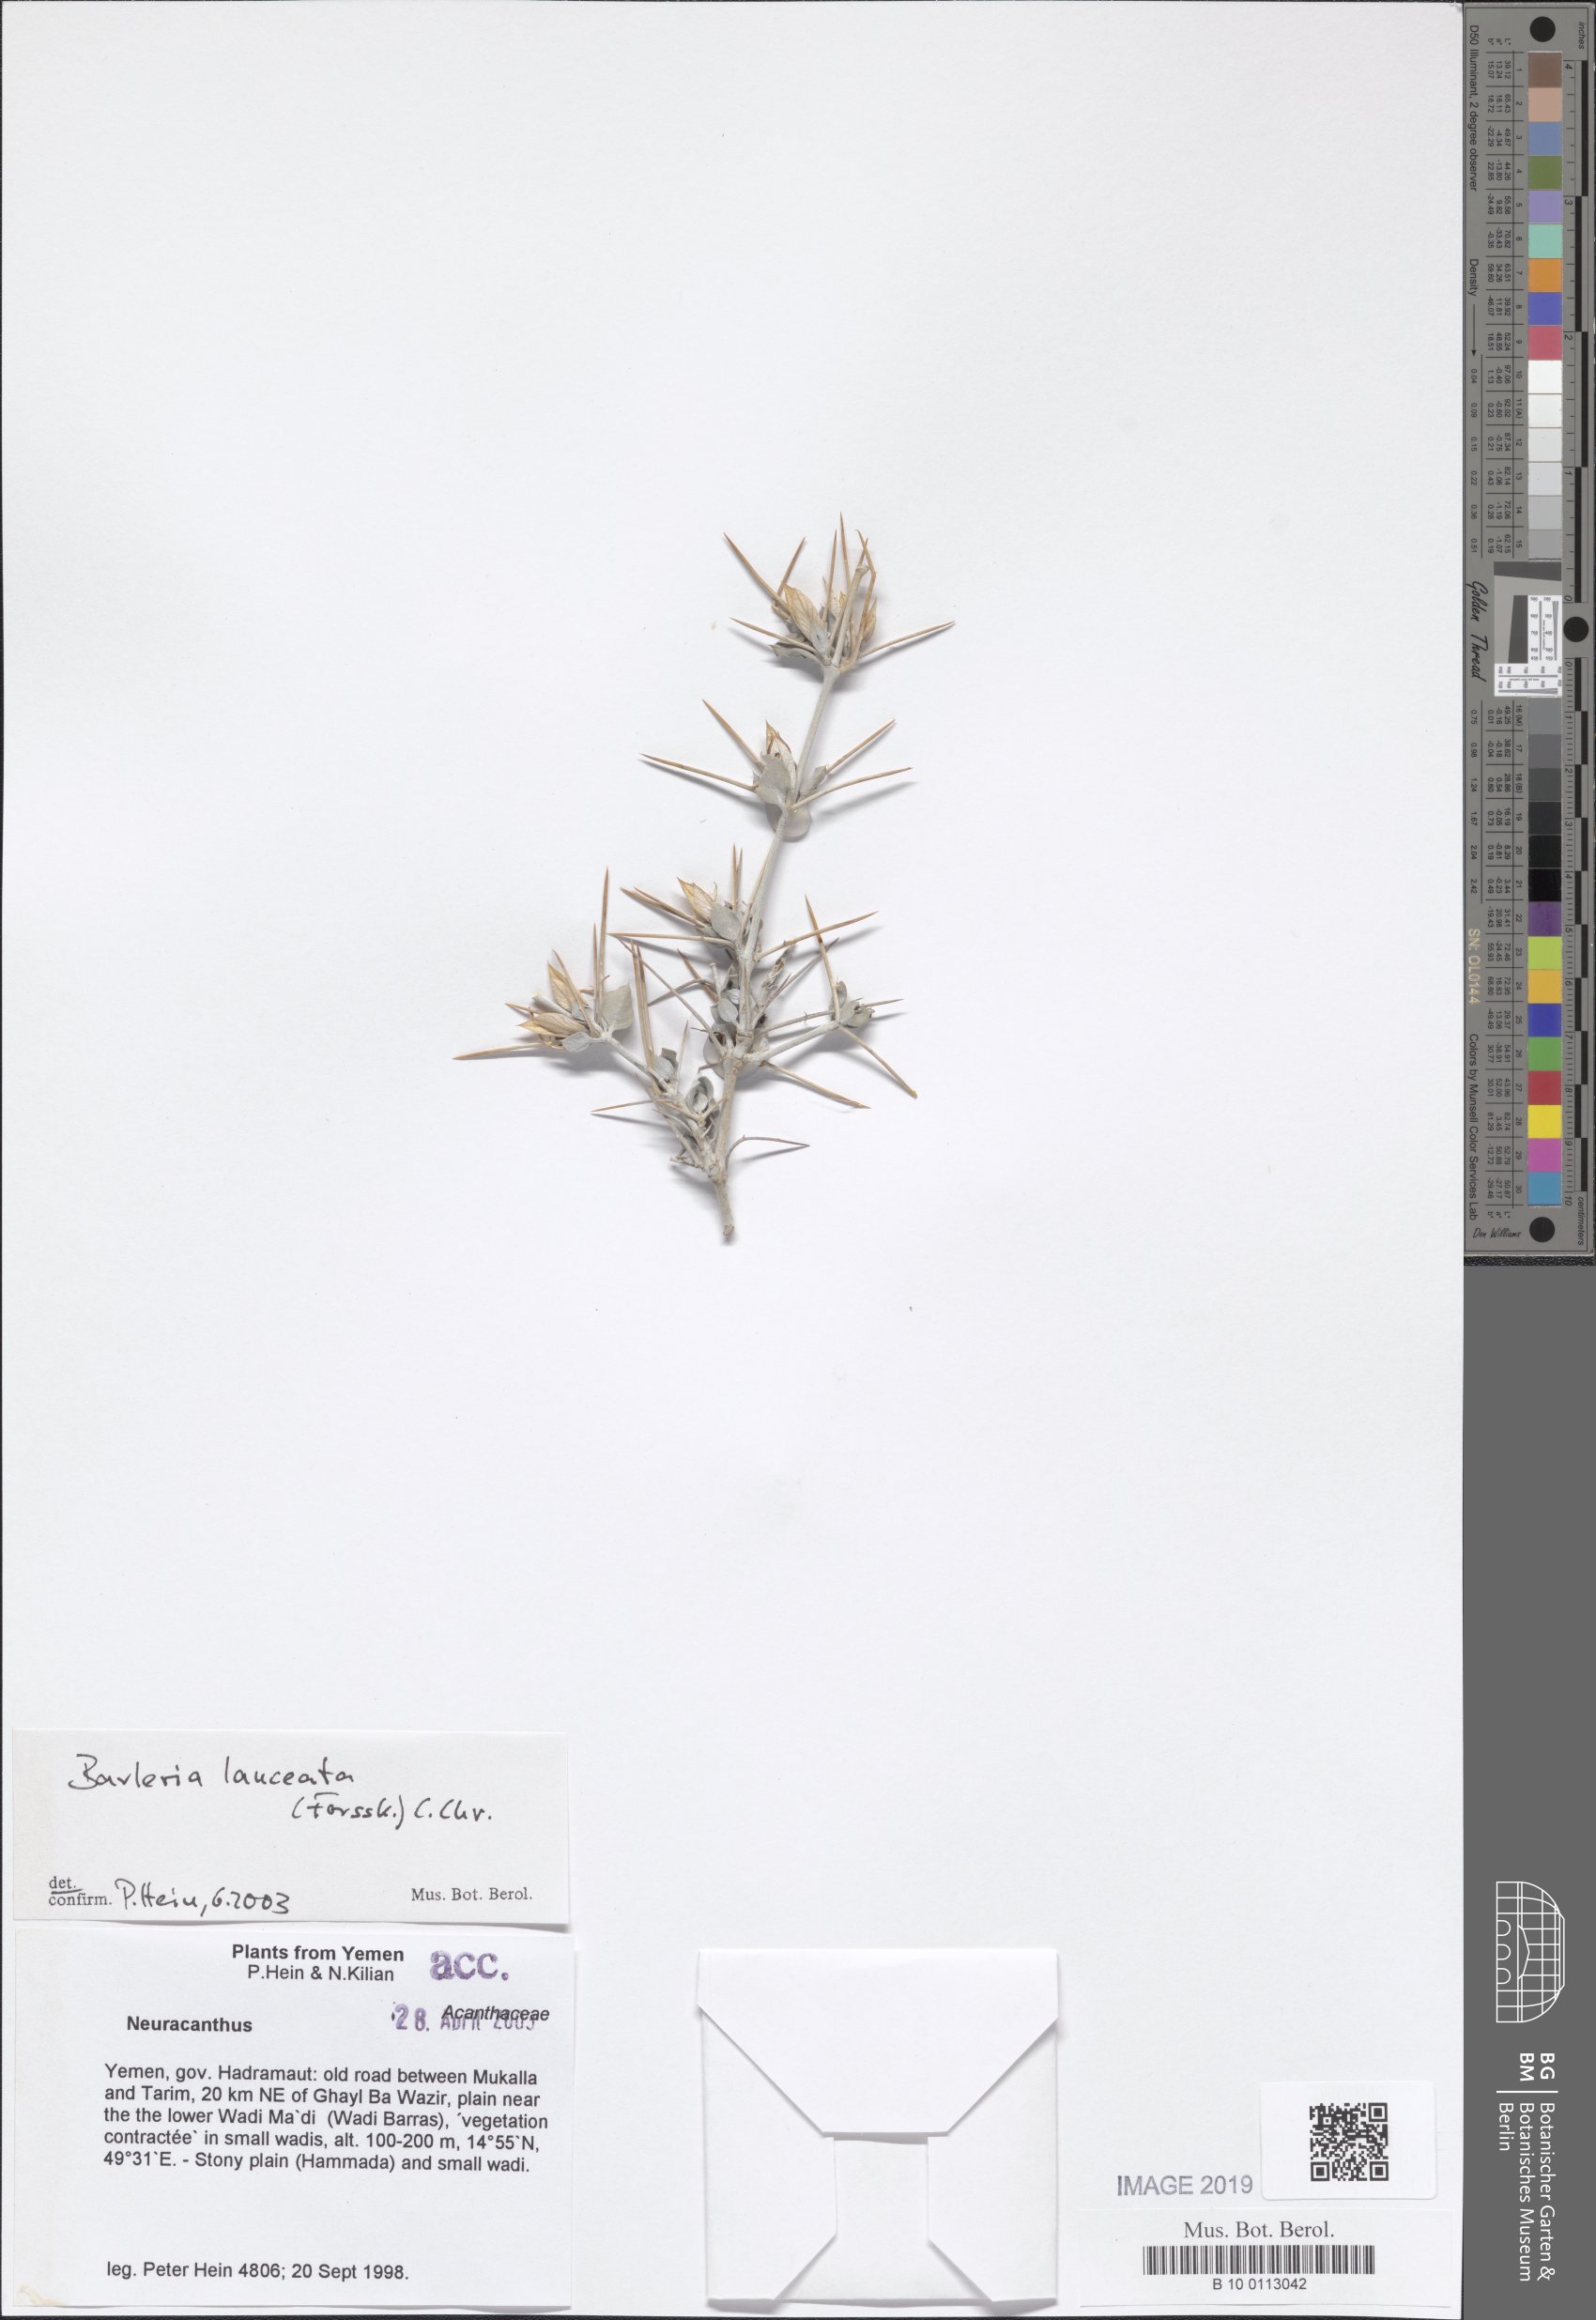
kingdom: Plantae
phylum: Tracheophyta
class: Magnoliopsida
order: Lamiales
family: Acanthaceae
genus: Barleria
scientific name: Barleria lanceata
